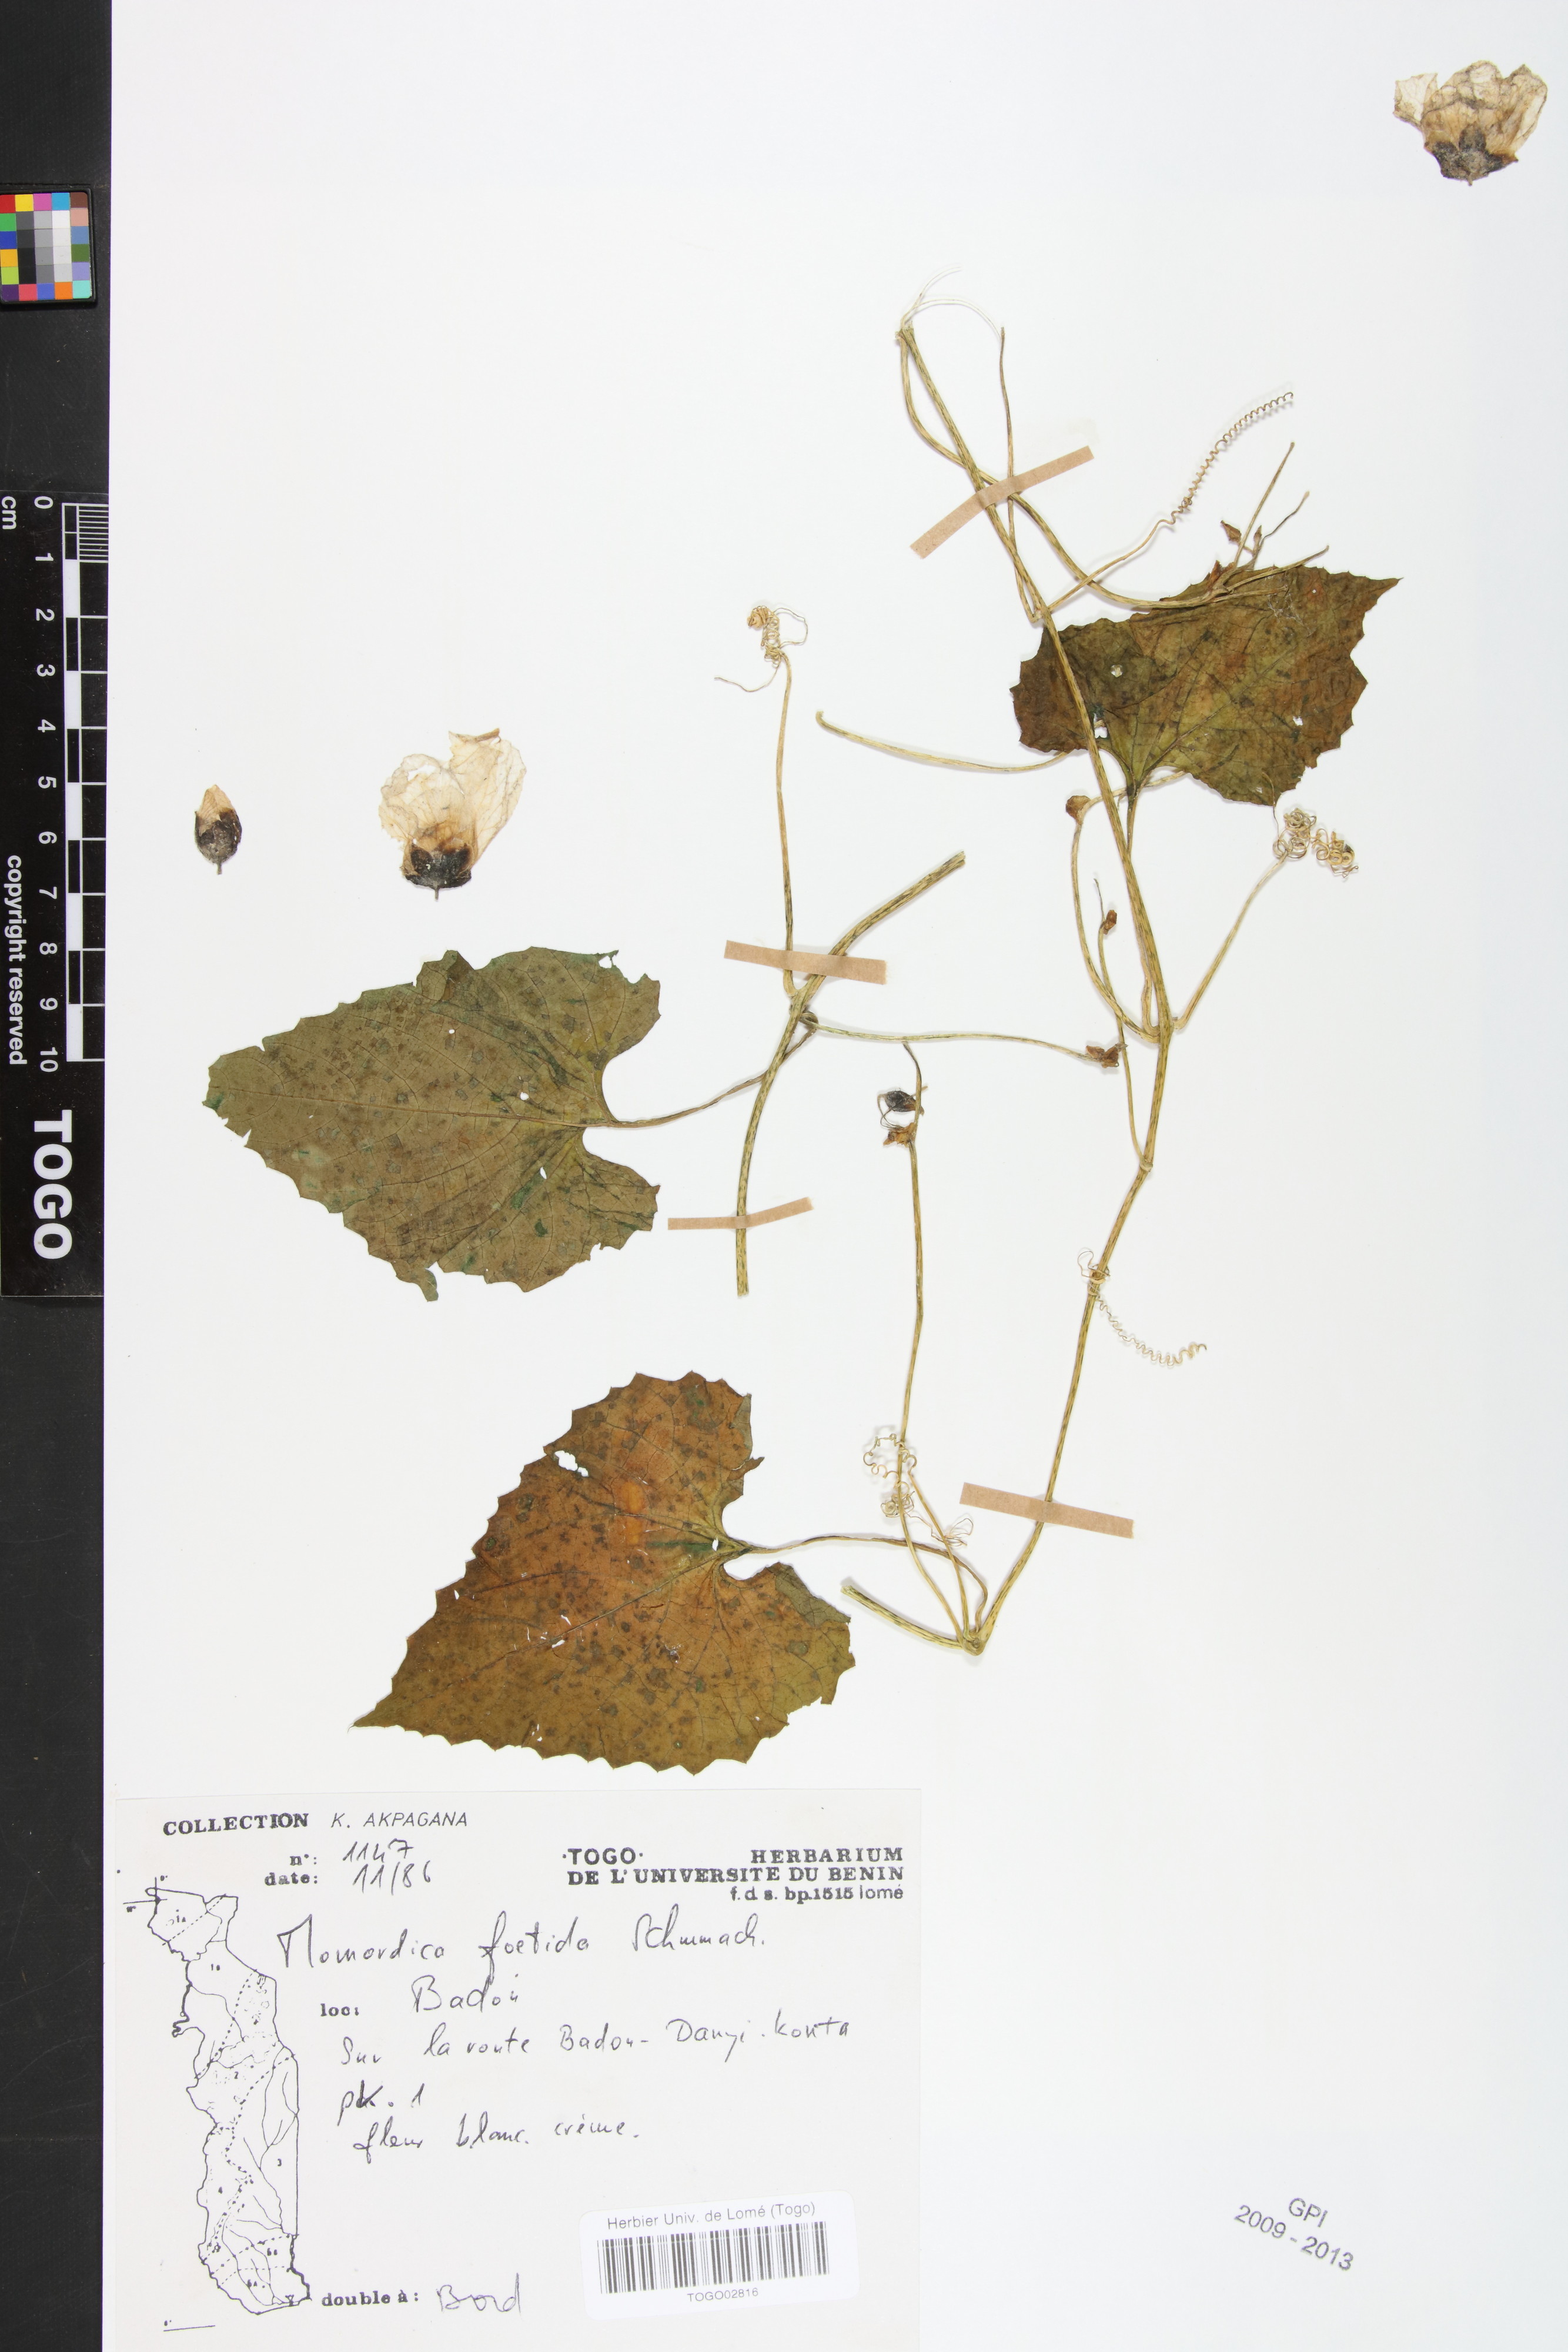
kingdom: Plantae
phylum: Tracheophyta
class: Magnoliopsida
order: Cucurbitales
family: Cucurbitaceae
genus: Momordica
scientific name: Momordica foetida
